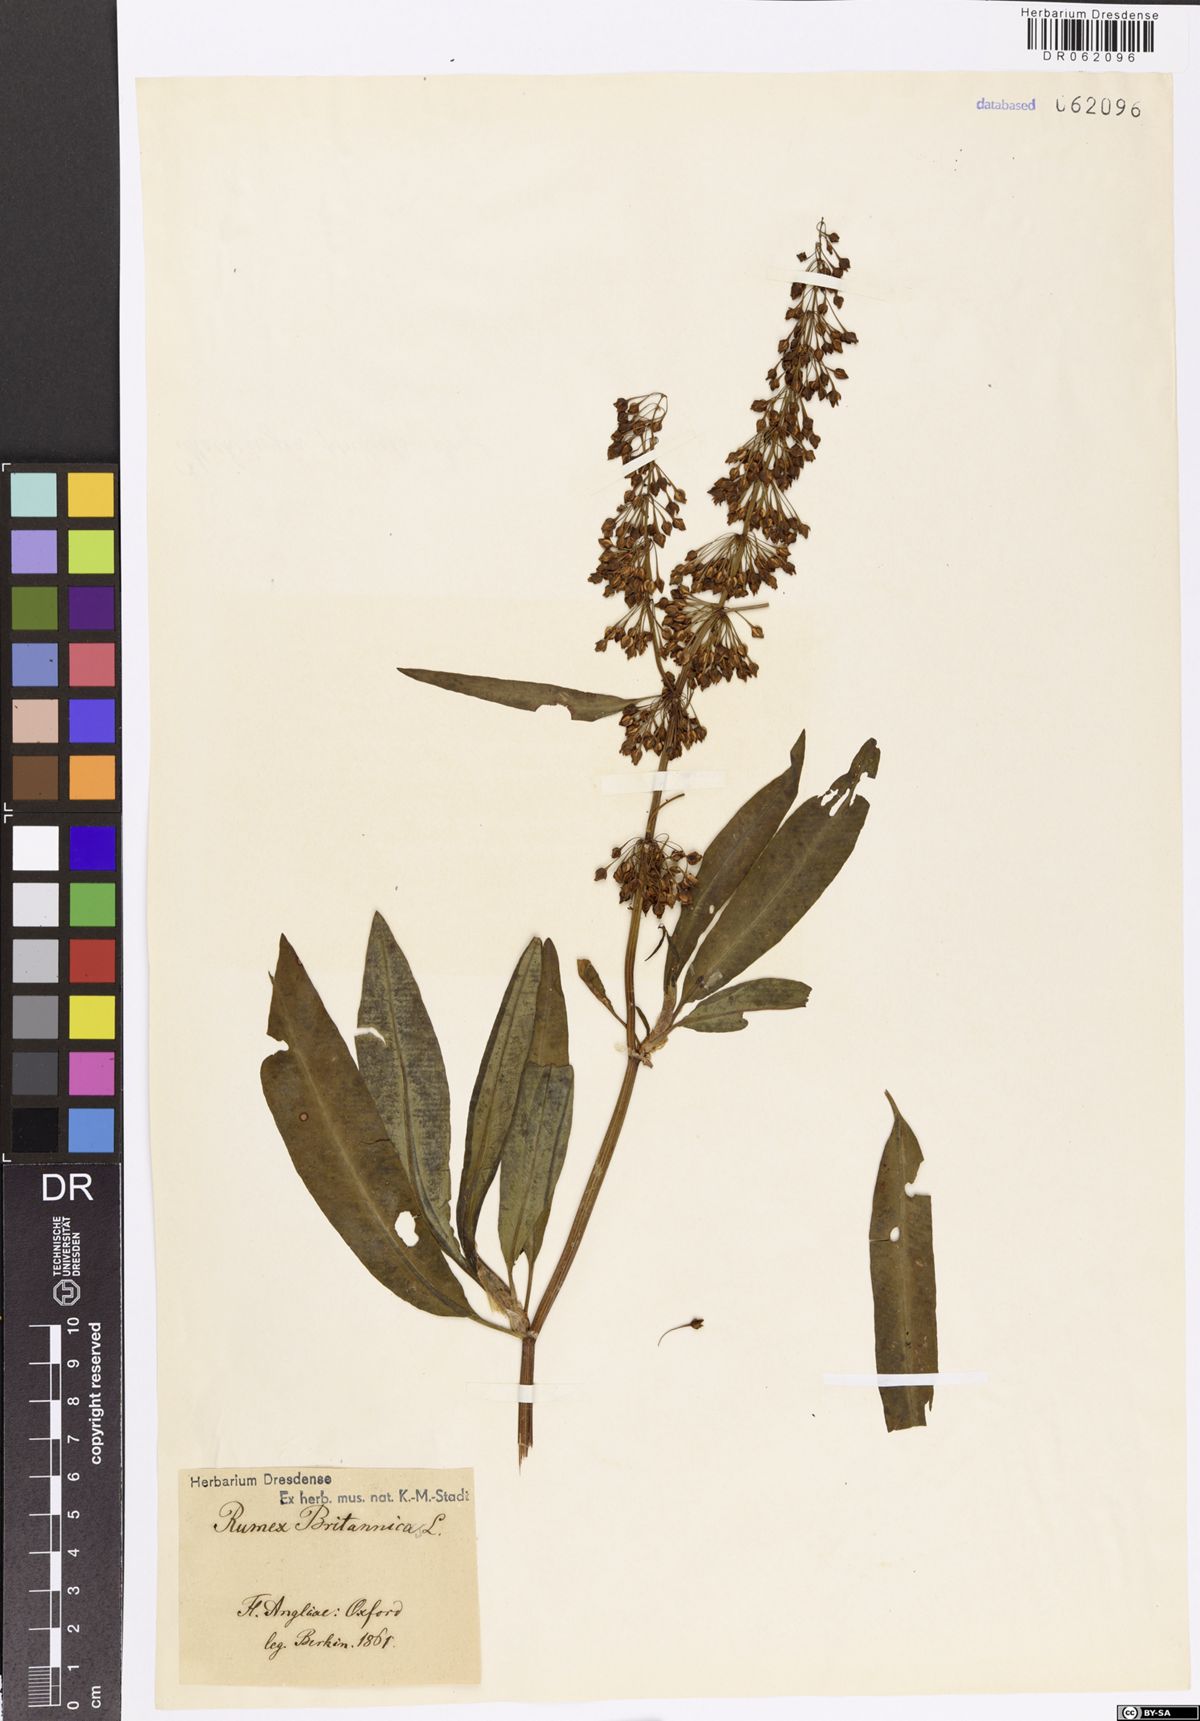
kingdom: Plantae
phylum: Tracheophyta
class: Magnoliopsida
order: Caryophyllales
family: Polygonaceae
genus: Rumex
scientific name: Rumex britannica
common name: British dock
